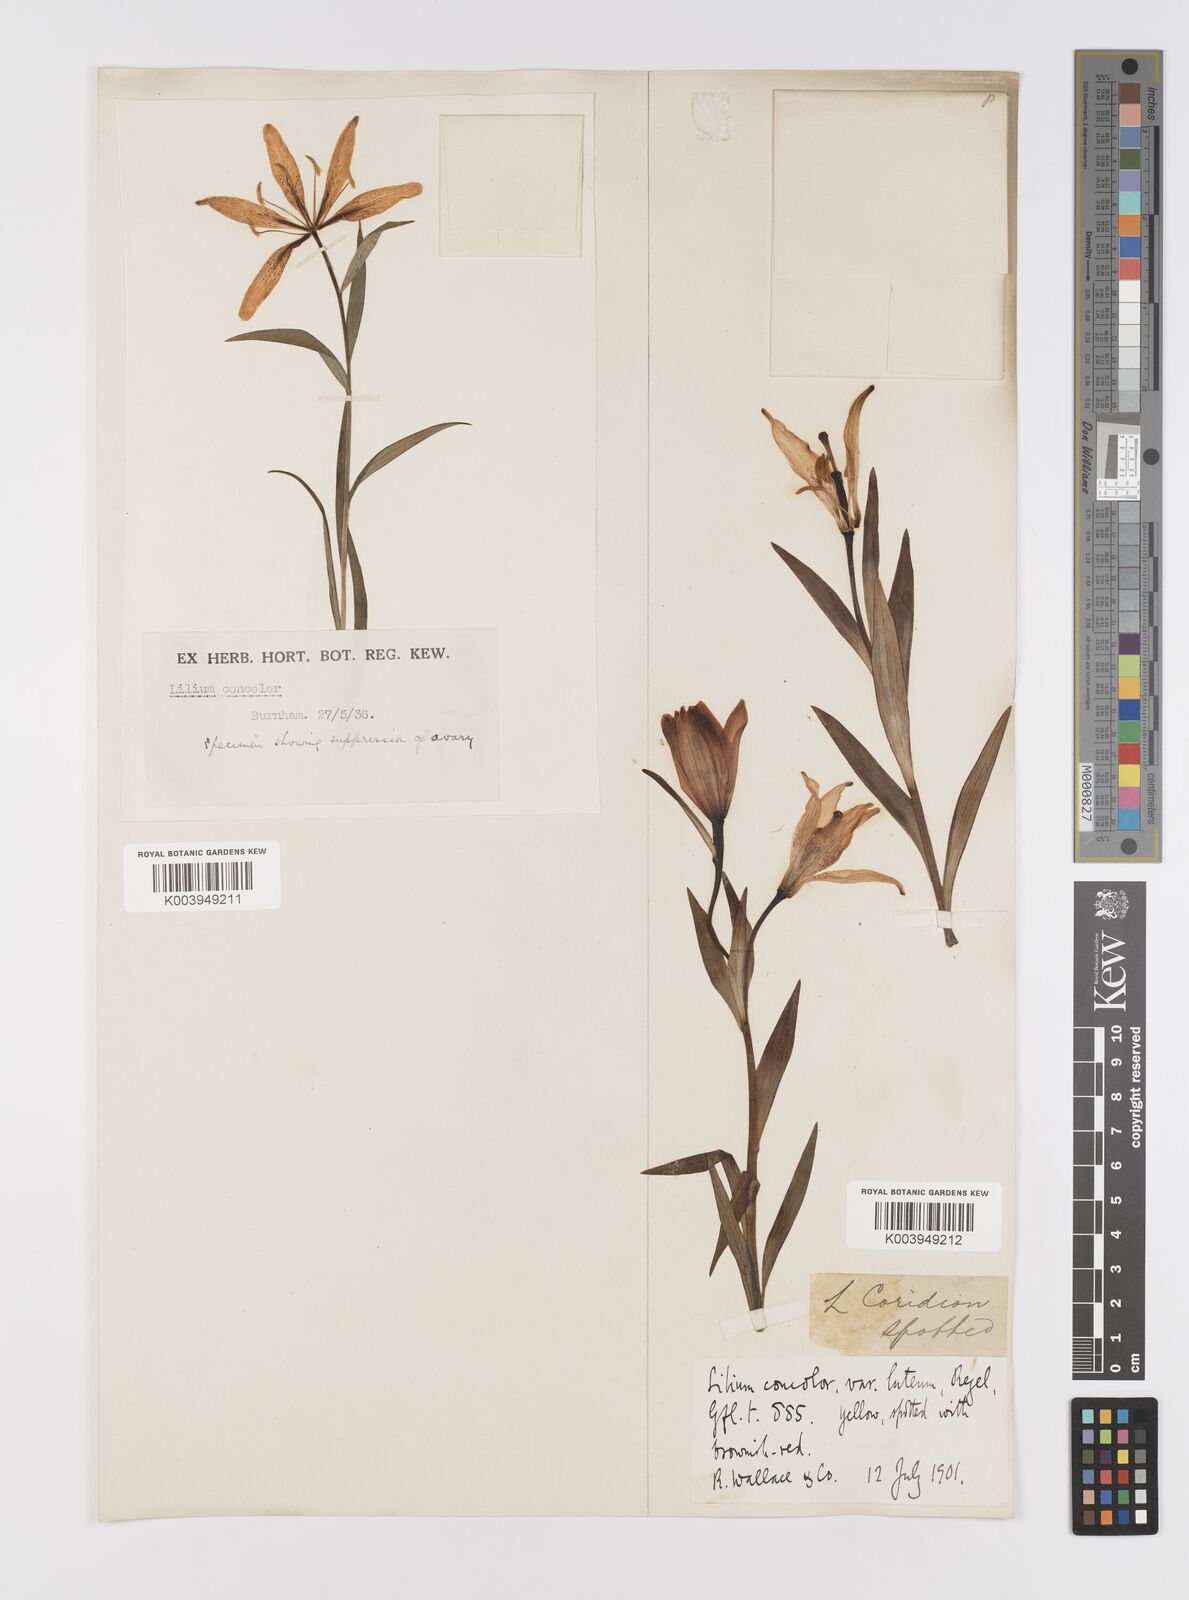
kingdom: Plantae
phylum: Tracheophyta
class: Liliopsida
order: Liliales
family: Liliaceae
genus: Lilium
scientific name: Lilium concolor
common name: Morning-star lily
